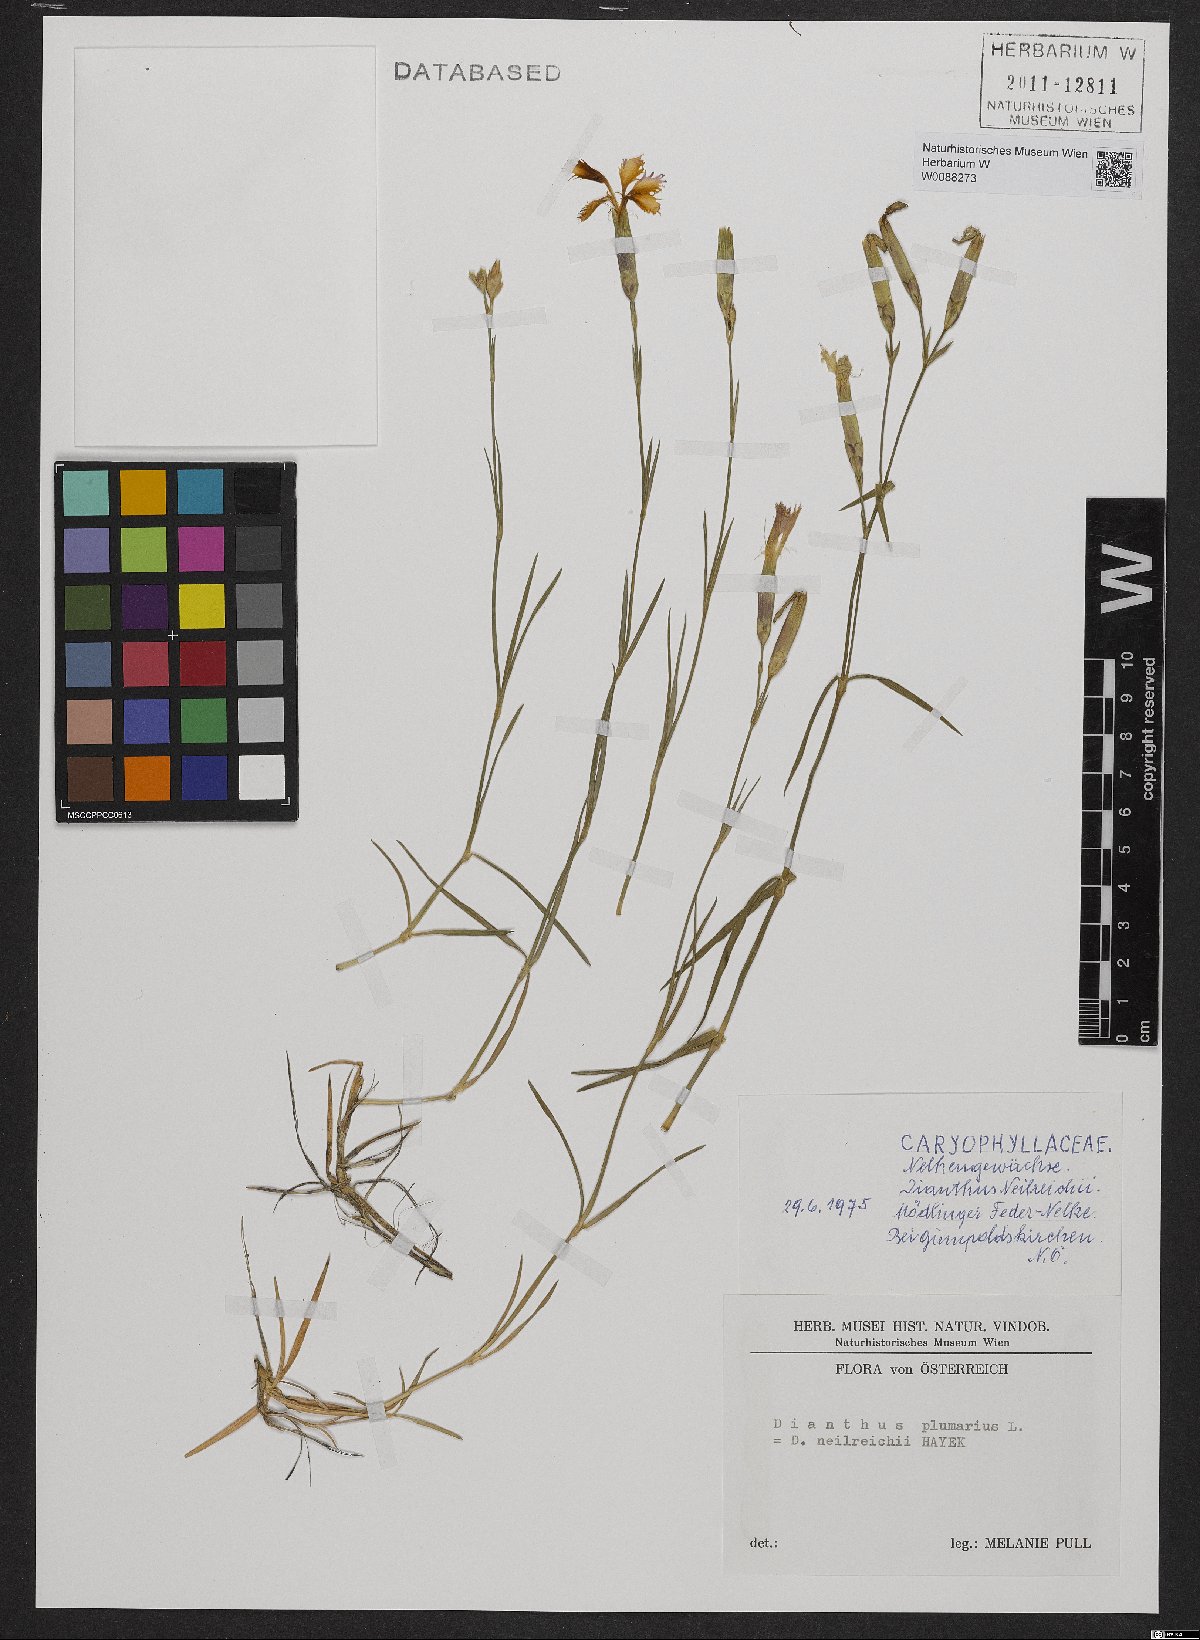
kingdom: Plantae
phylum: Tracheophyta
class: Magnoliopsida
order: Caryophyllales
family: Caryophyllaceae
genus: Dianthus
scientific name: Dianthus plumarius
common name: Pink
